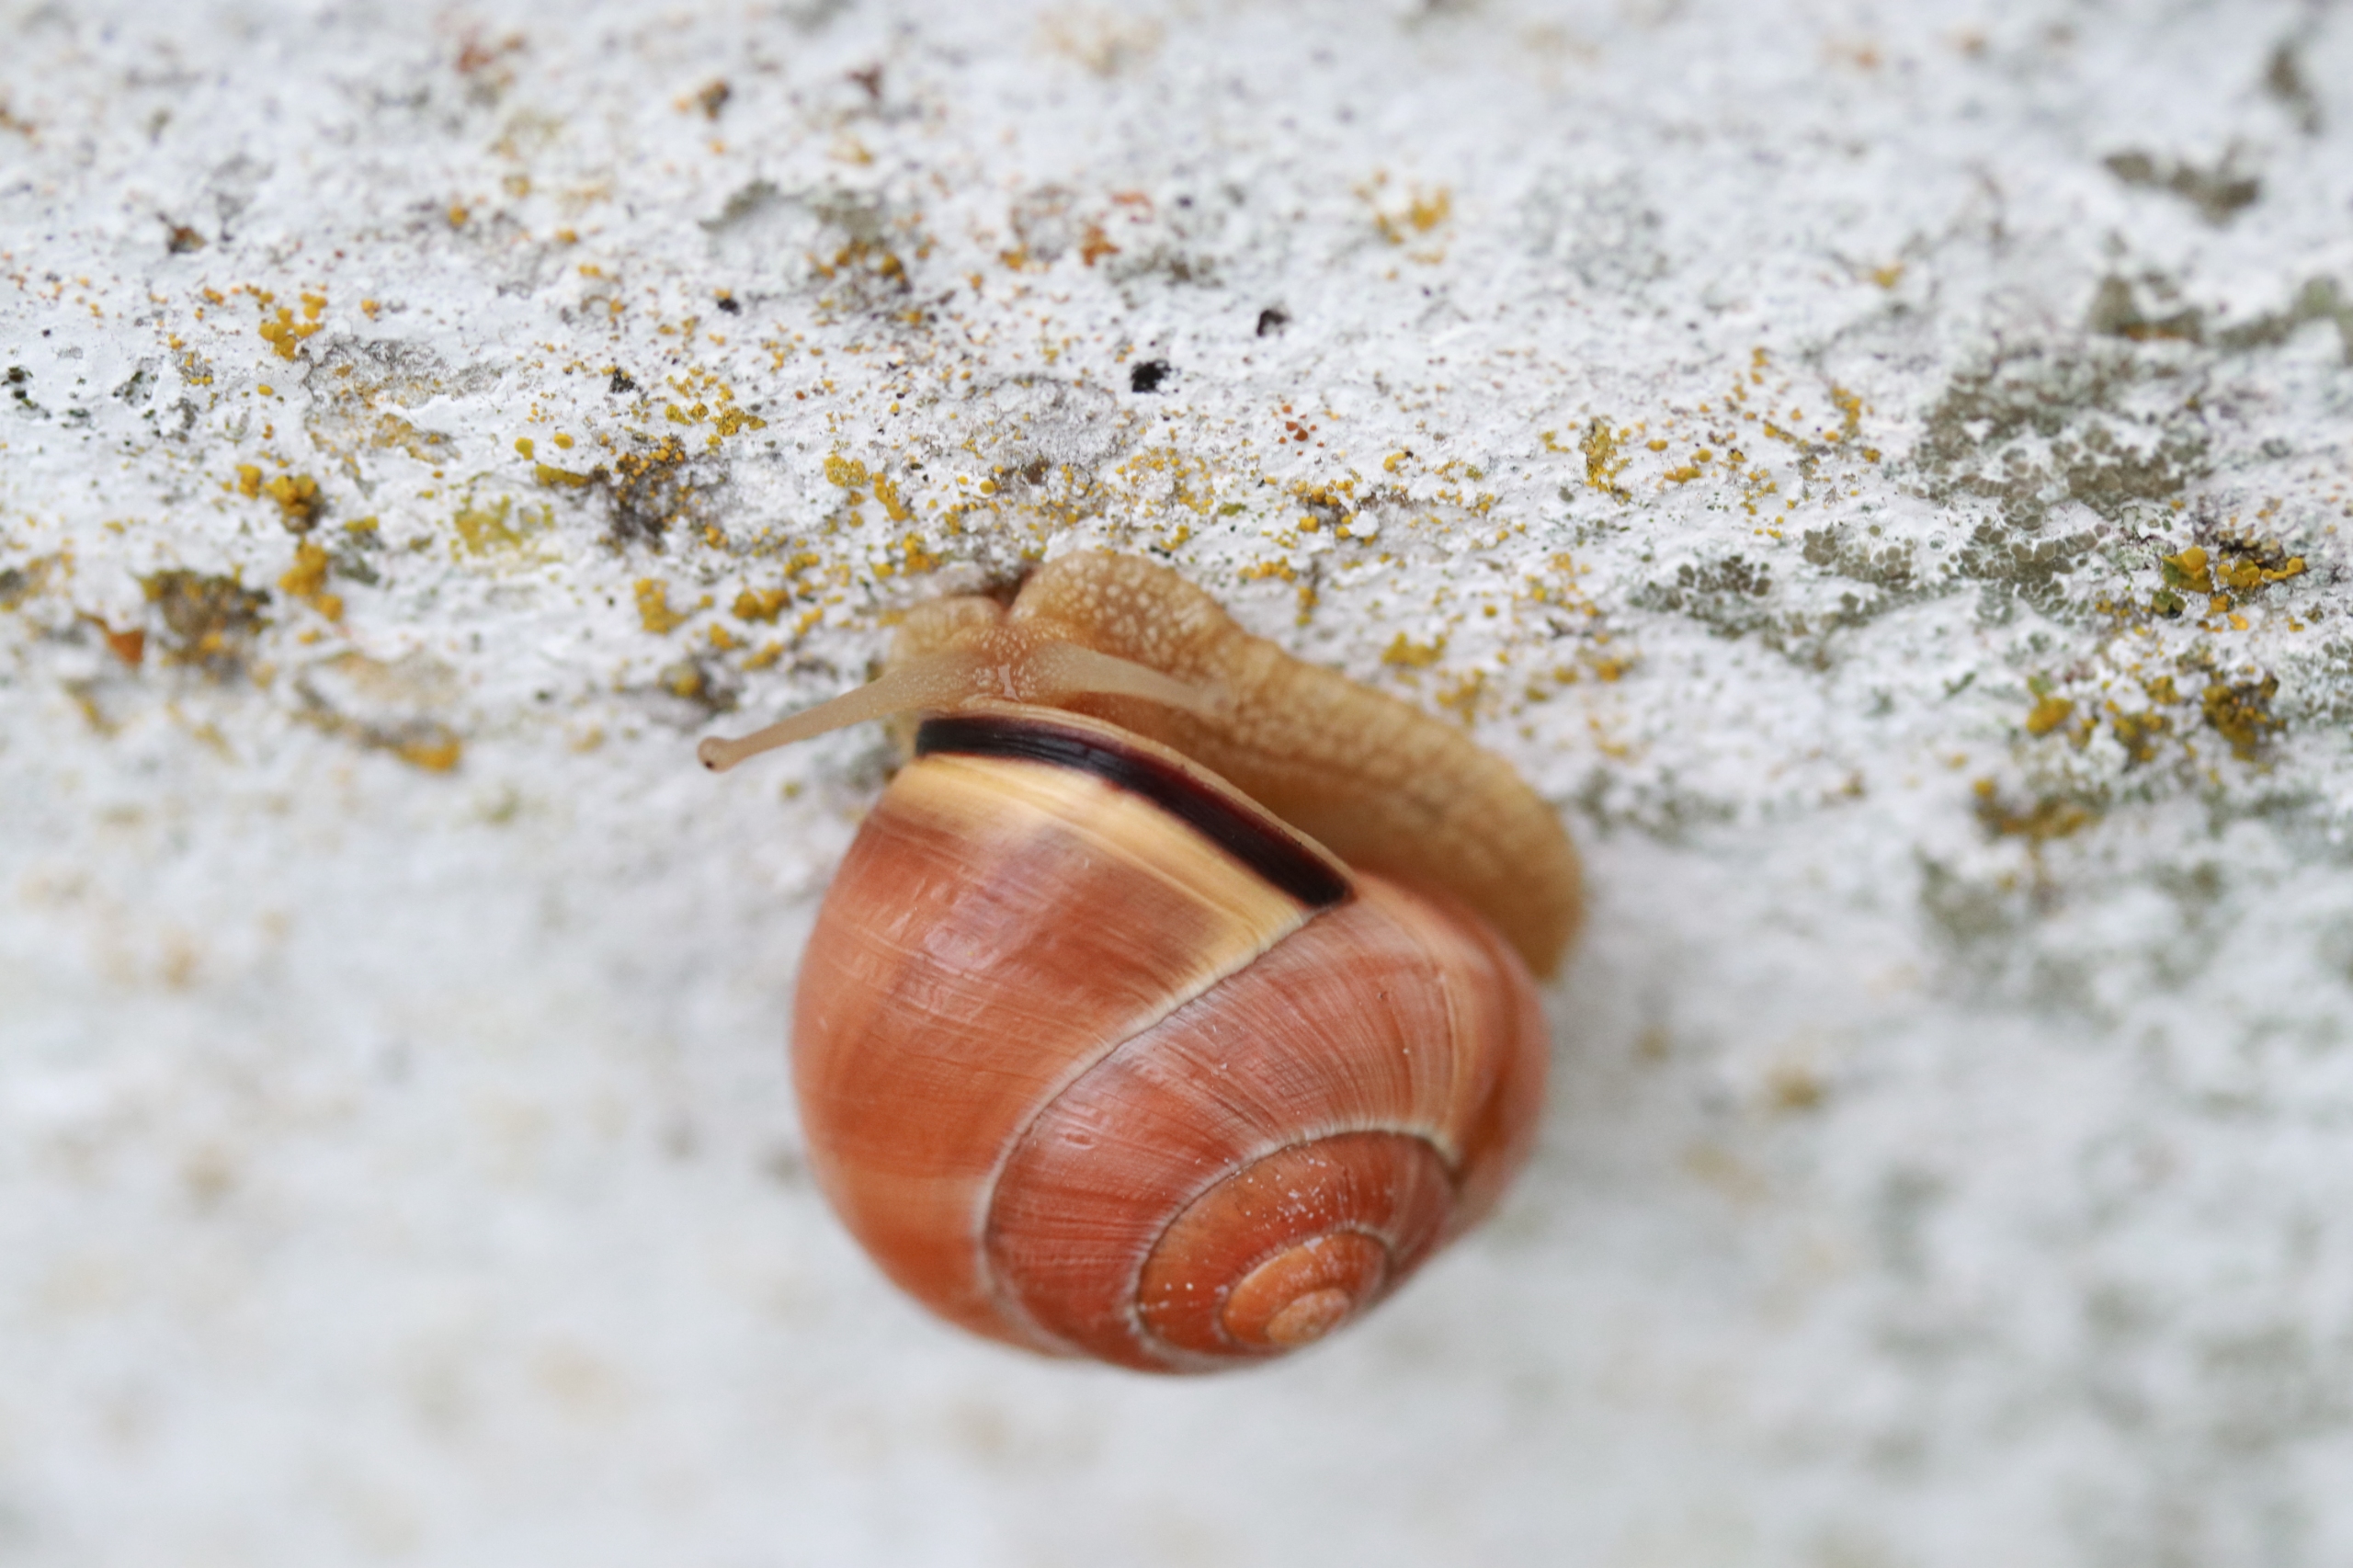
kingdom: Animalia
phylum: Mollusca
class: Gastropoda
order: Stylommatophora
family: Helicidae
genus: Cepaea
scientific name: Cepaea nemoralis
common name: Lundsnegl
